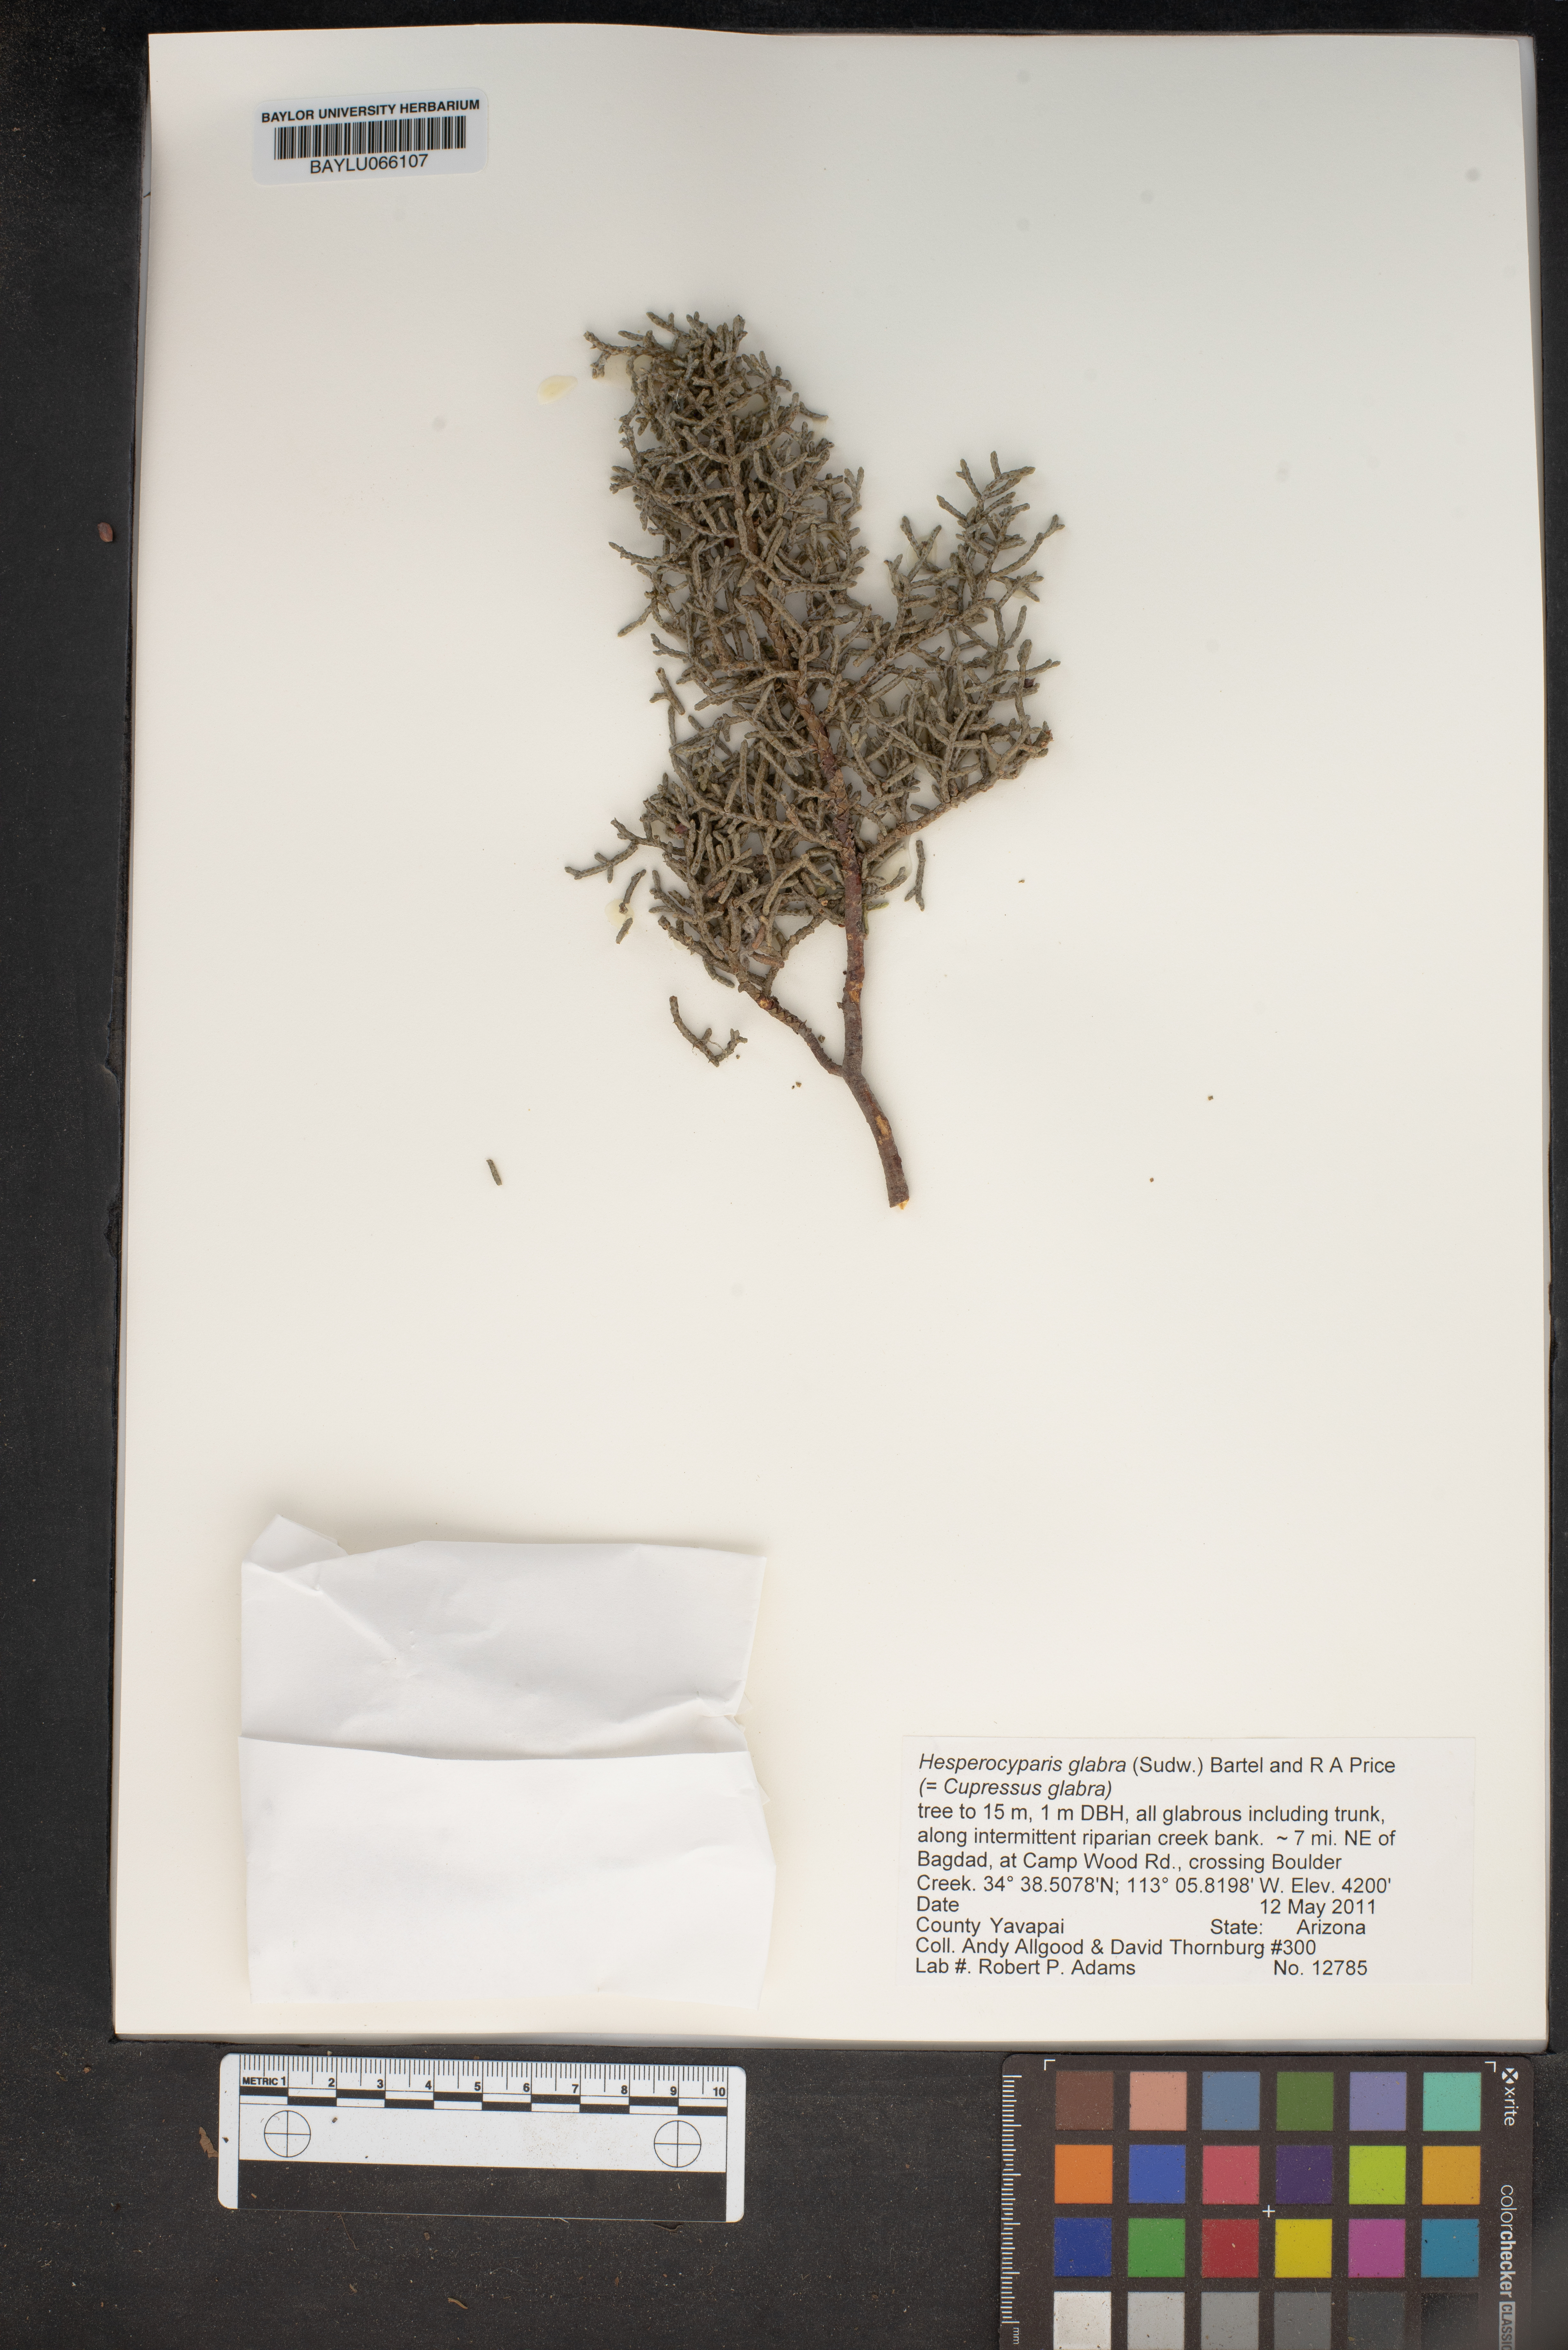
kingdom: Plantae
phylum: Tracheophyta
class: Pinopsida
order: Pinales
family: Cupressaceae
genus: Cupressus
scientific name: Cupressus arizonica
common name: Arizona cypress
